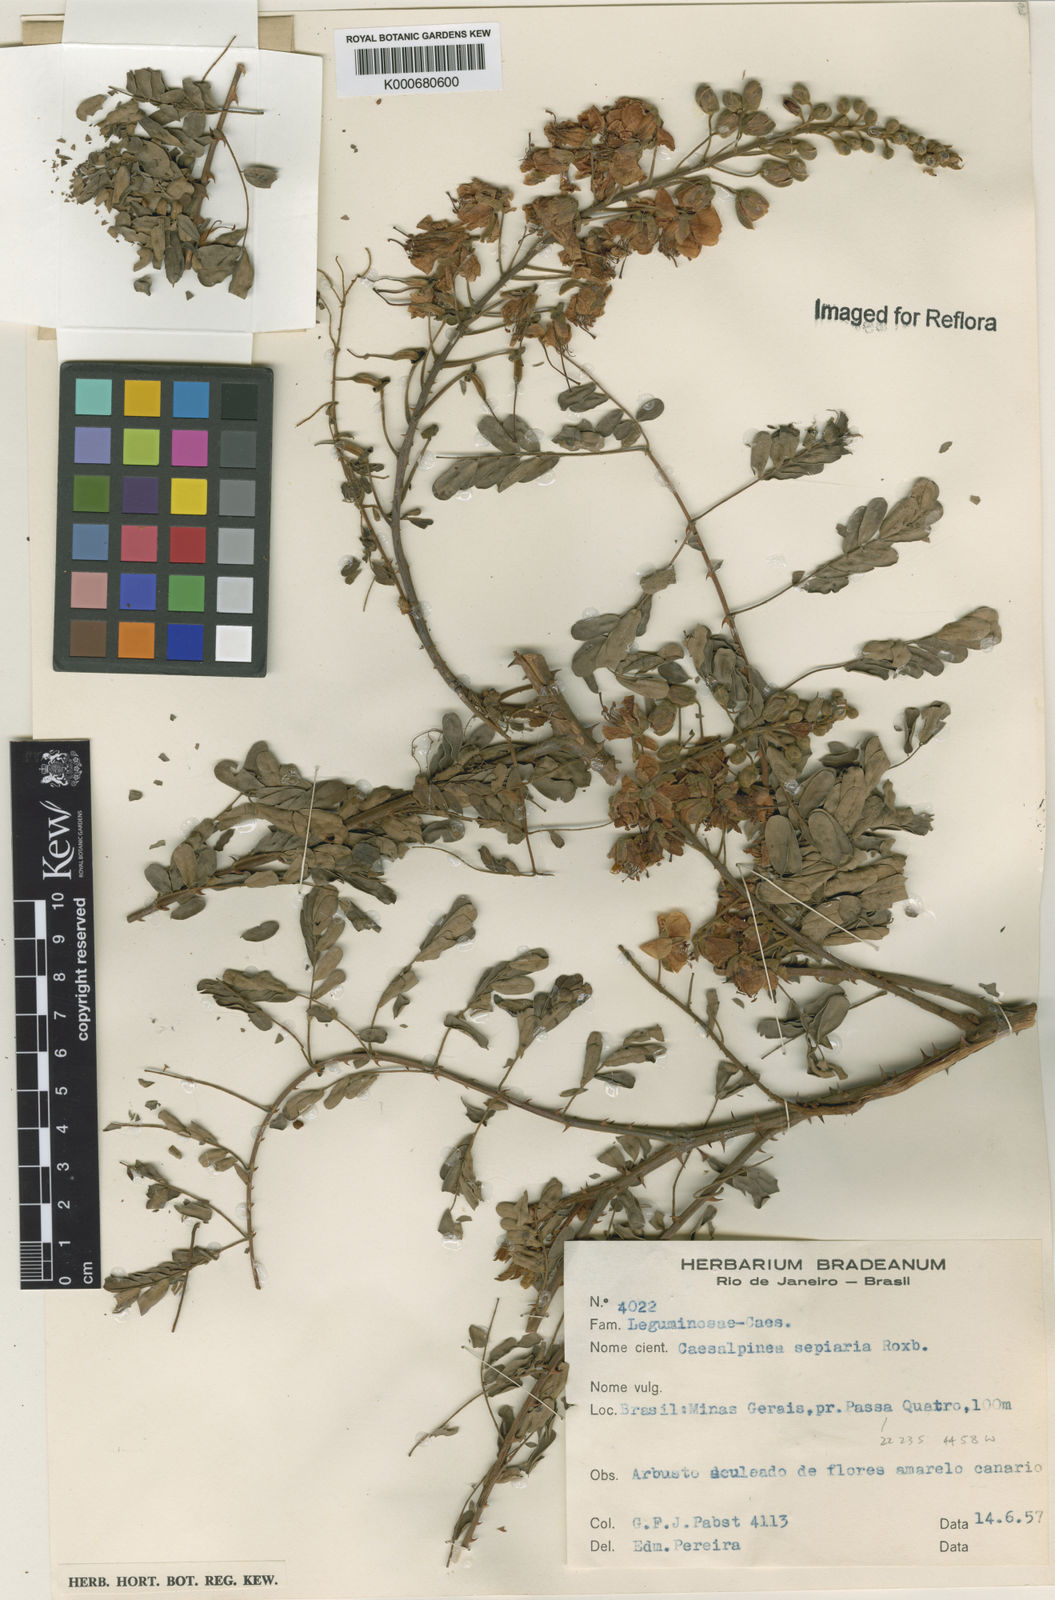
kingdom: Plantae
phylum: Tracheophyta
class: Magnoliopsida
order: Fabales
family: Fabaceae
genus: Biancaea
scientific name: Biancaea decapetala
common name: Cat's claw
